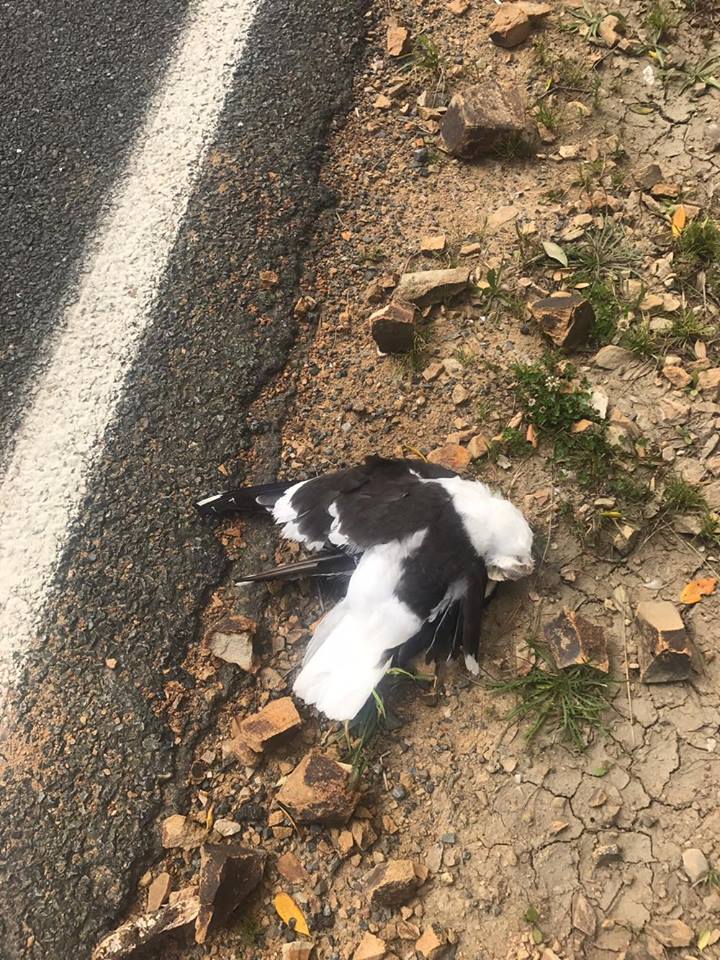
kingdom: Animalia
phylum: Chordata
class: Aves
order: Charadriiformes
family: Laridae
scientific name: Laridae
